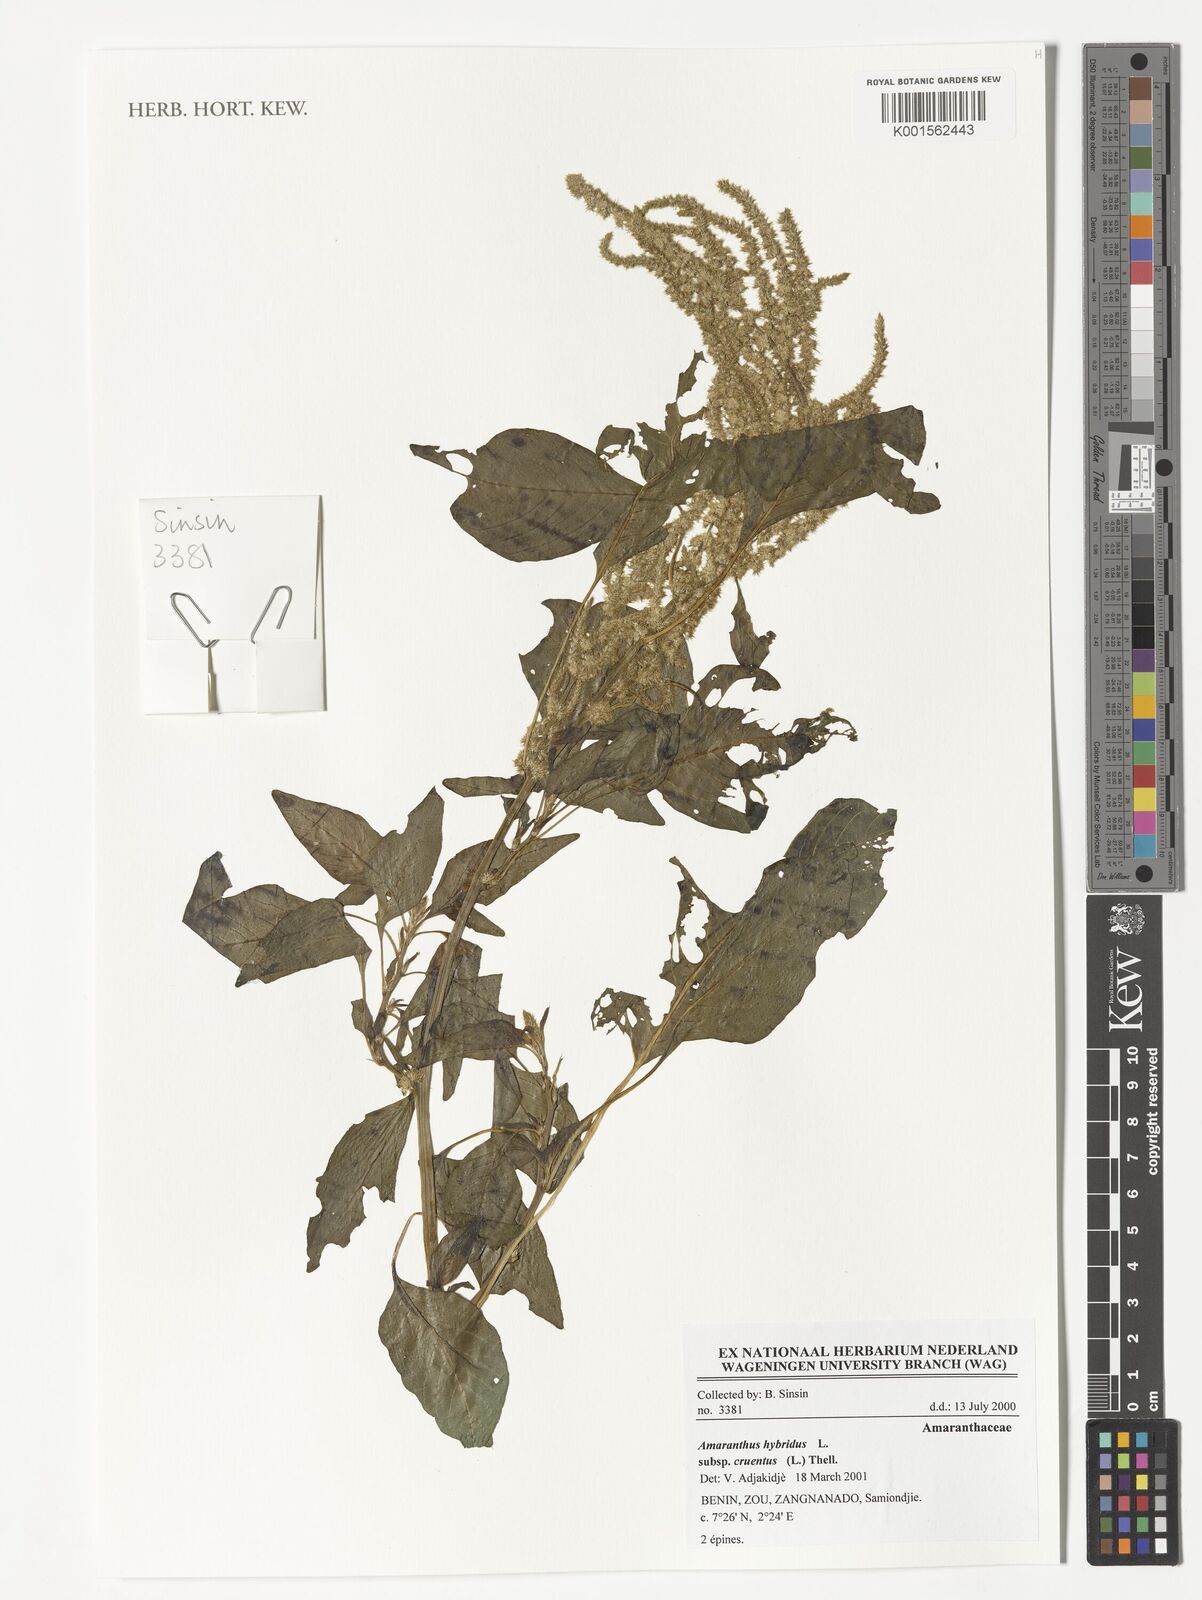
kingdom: Plantae
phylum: Tracheophyta
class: Magnoliopsida
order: Caryophyllales
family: Amaranthaceae
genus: Amaranthus
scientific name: Amaranthus cruentus
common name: Purple amaranth
